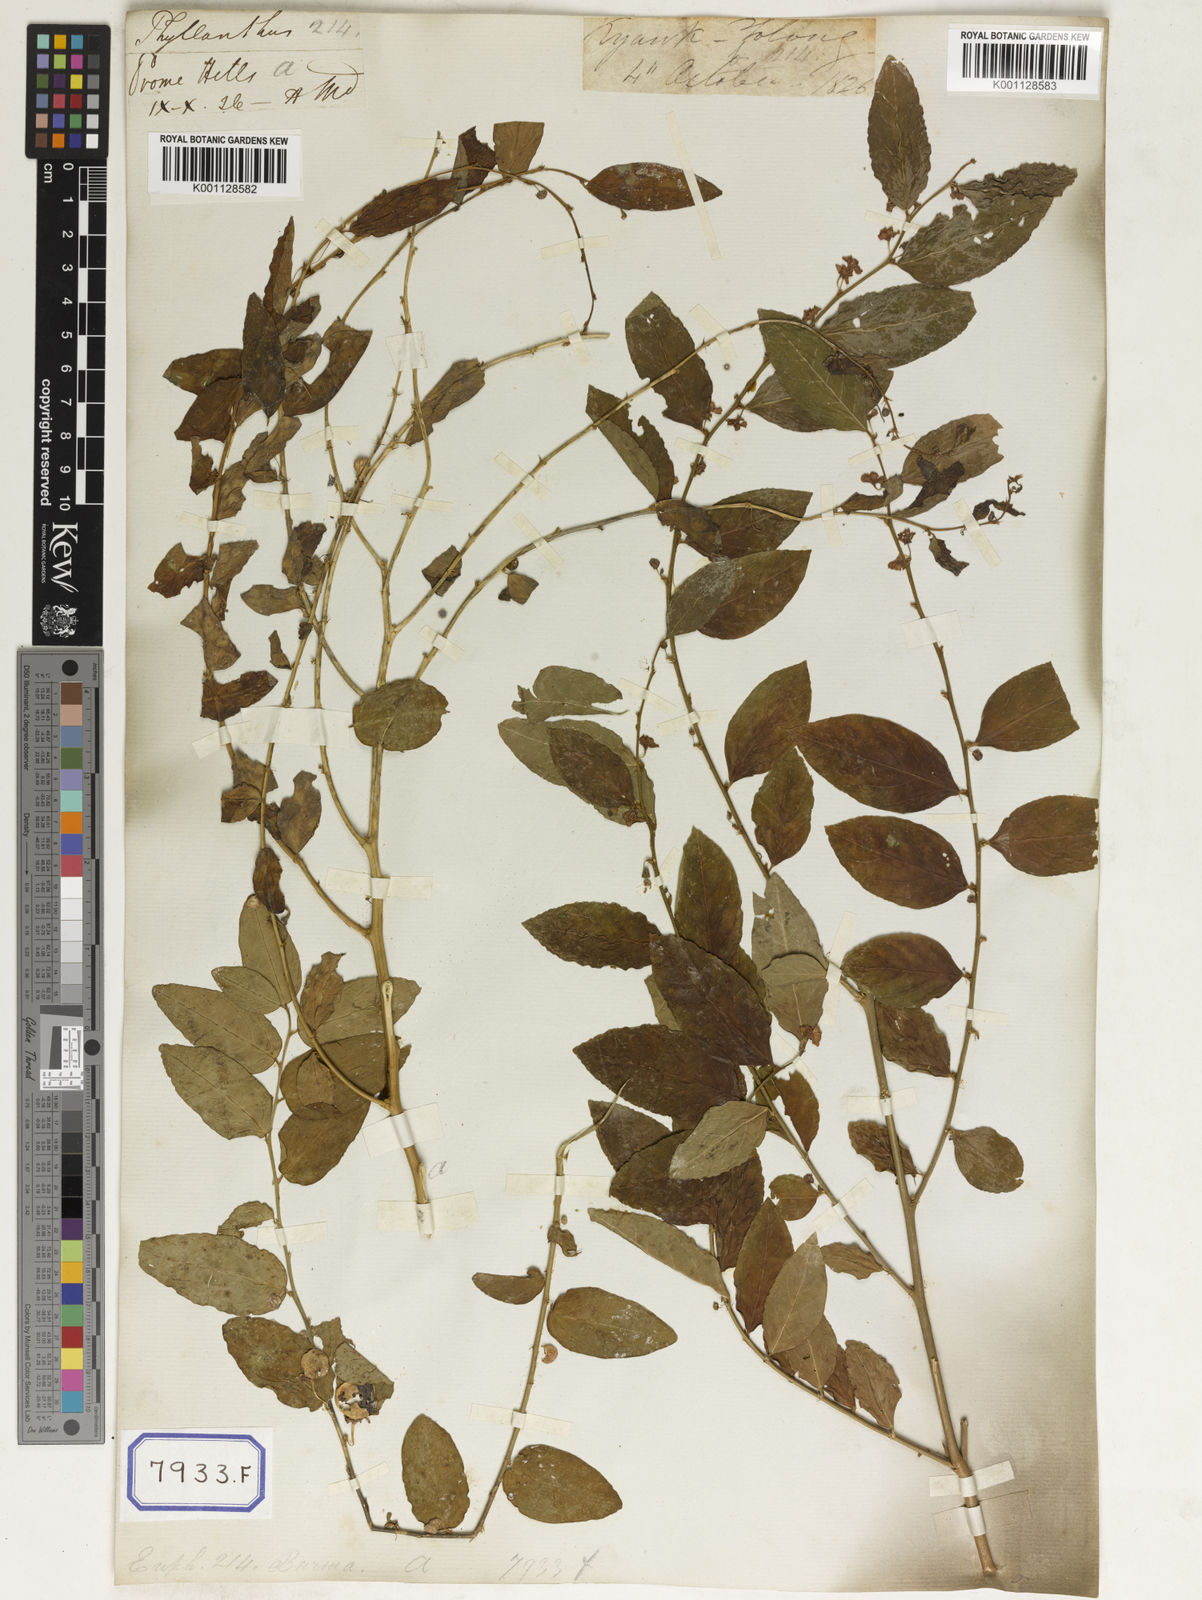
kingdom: Plantae
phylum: Tracheophyta
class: Magnoliopsida
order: Malpighiales
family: Euphorbiaceae
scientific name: Euphorbiaceae
